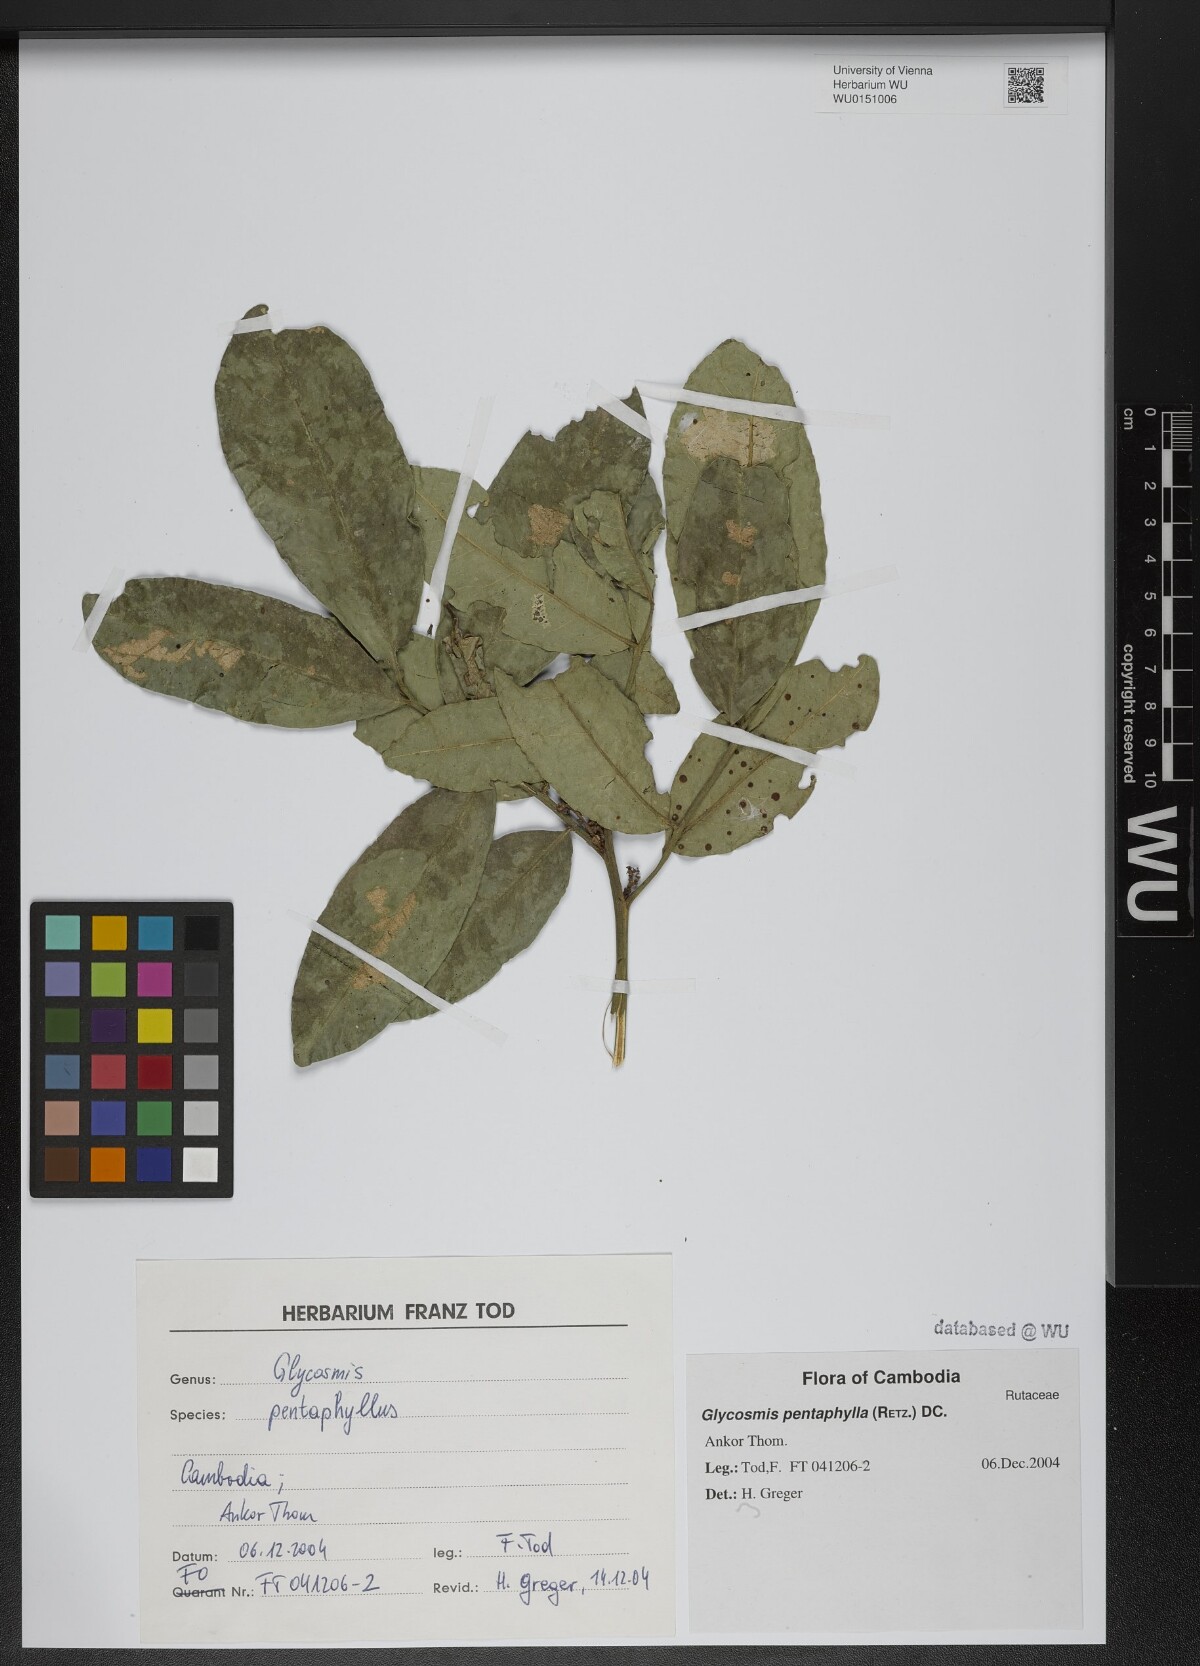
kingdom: Plantae
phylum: Tracheophyta
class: Magnoliopsida
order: Sapindales
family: Rutaceae
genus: Glycosmis
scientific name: Glycosmis pentaphylla
